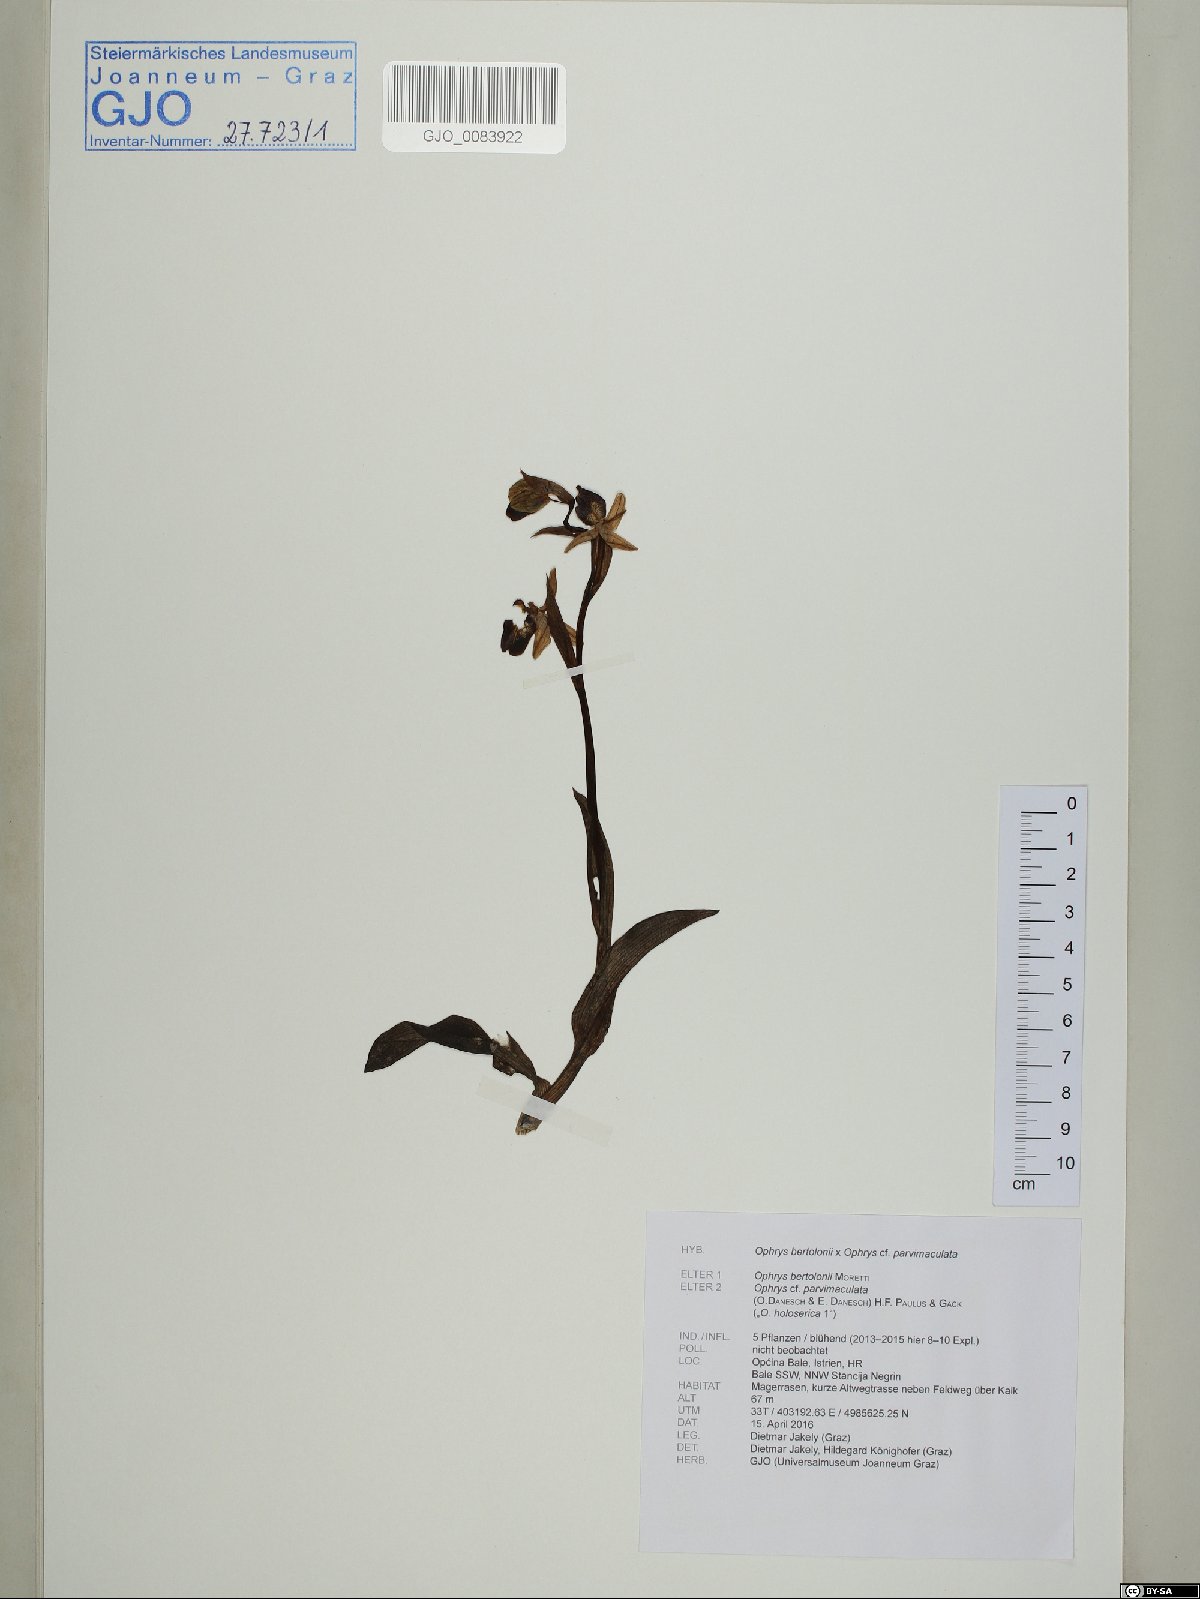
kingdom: Plantae
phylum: Tracheophyta
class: Liliopsida
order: Asparagales
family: Orchidaceae
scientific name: Orchidaceae
